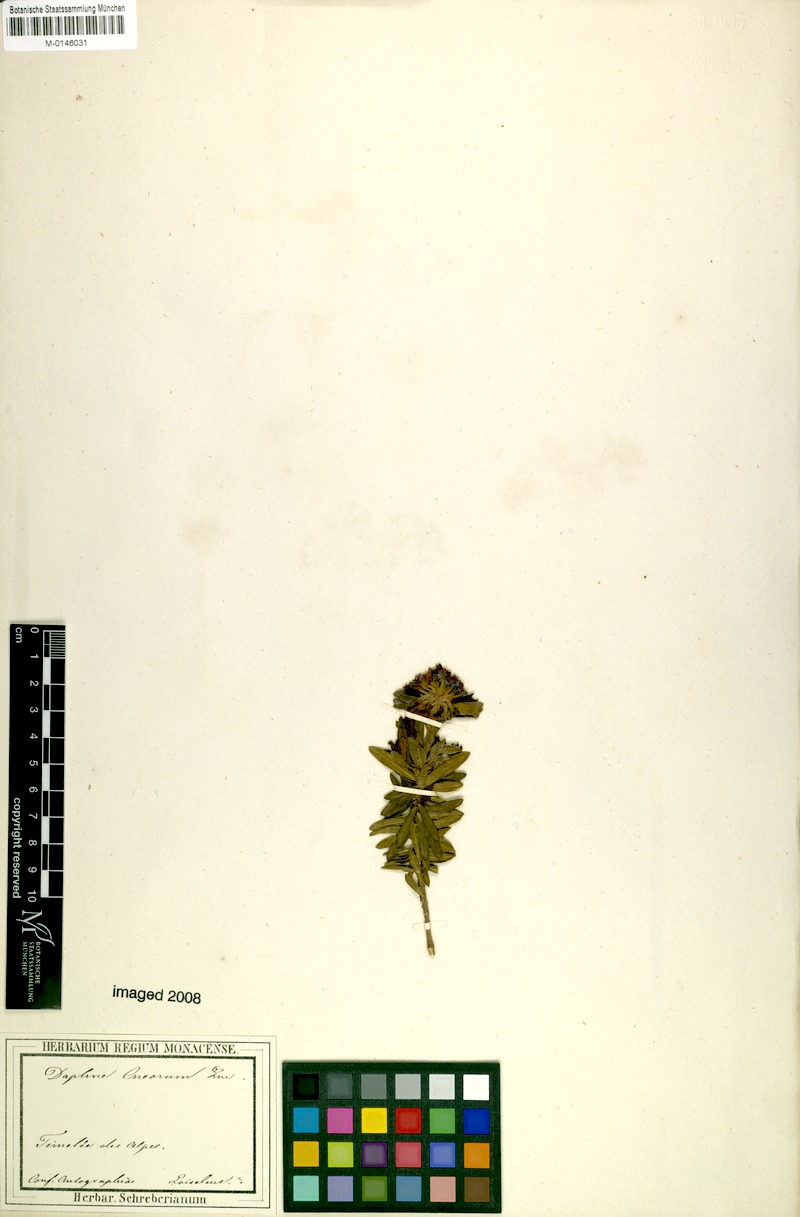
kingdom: Plantae
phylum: Tracheophyta
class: Magnoliopsida
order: Malvales
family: Thymelaeaceae
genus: Daphne
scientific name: Daphne cneorum
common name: Garland-flower
